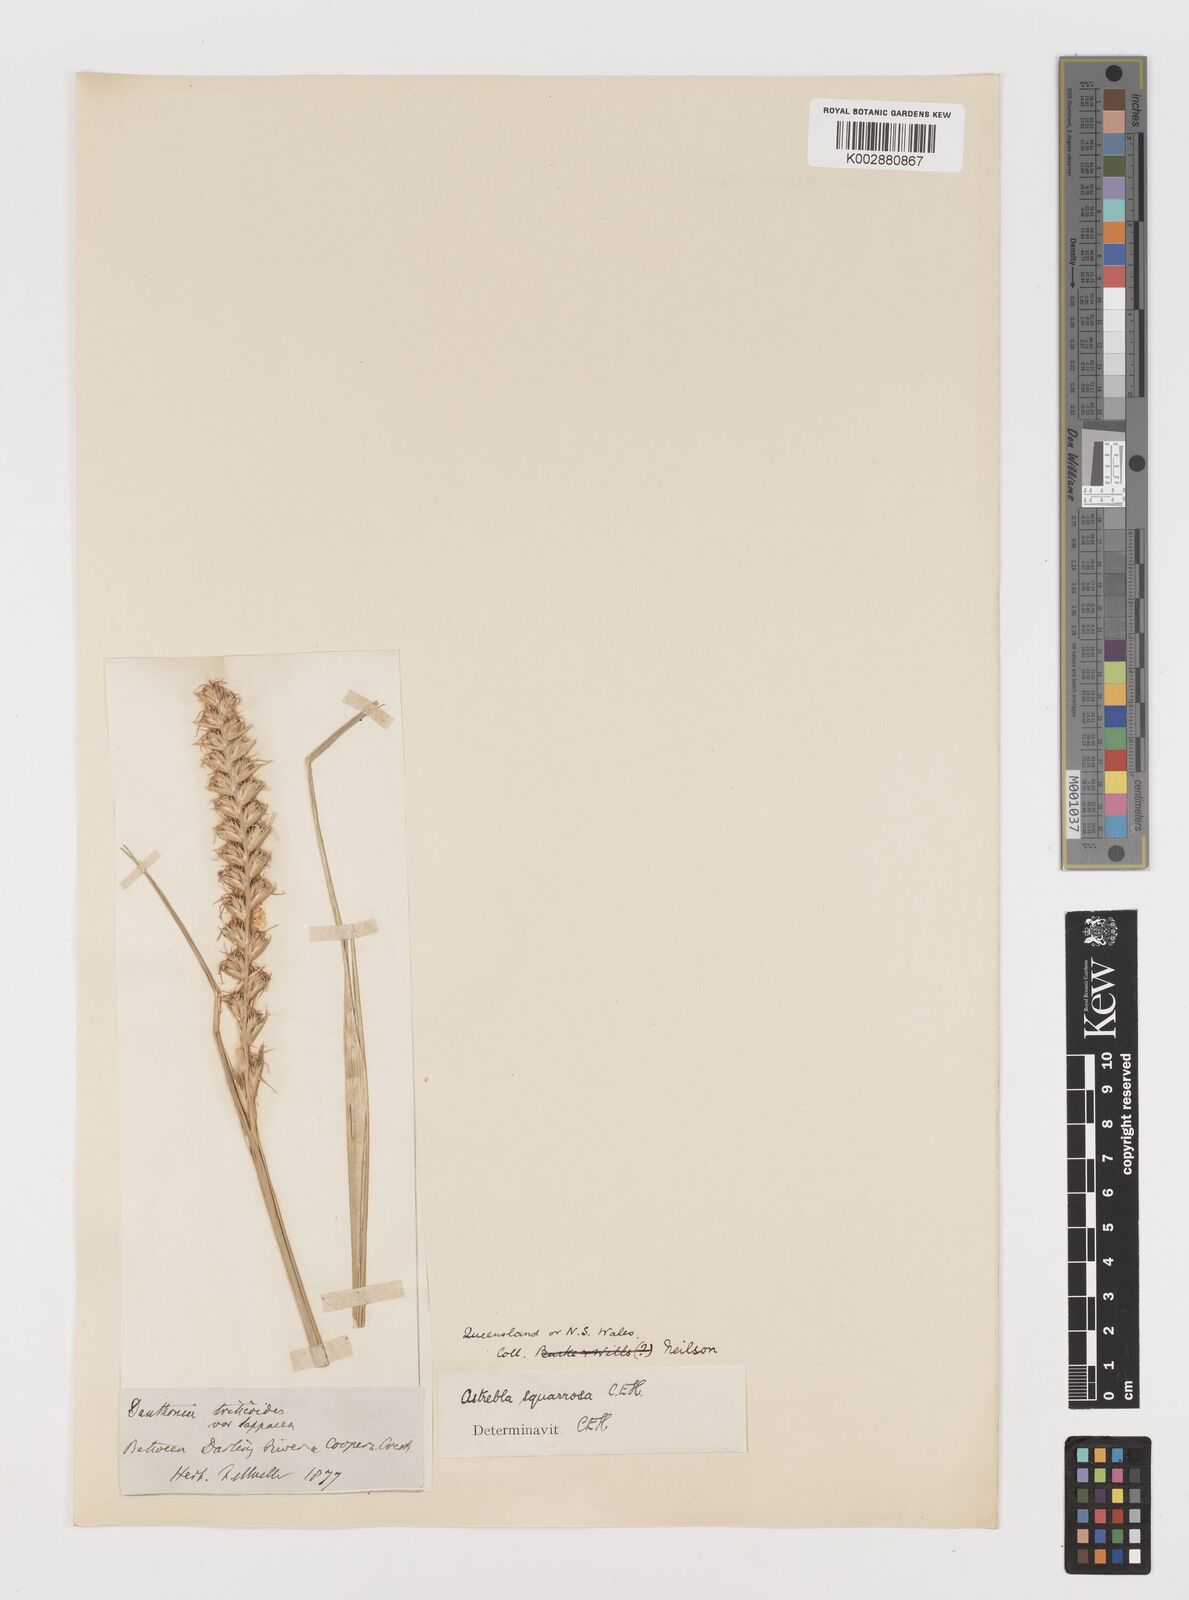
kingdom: Plantae
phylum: Tracheophyta
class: Liliopsida
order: Poales
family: Poaceae
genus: Astrebla
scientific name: Astrebla squarrosa
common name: Wheat-ear mitchell grass
